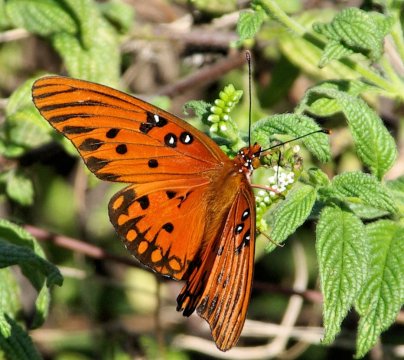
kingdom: Animalia
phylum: Arthropoda
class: Insecta
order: Lepidoptera
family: Nymphalidae
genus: Dione
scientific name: Dione vanillae
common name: Gulf Fritillary
